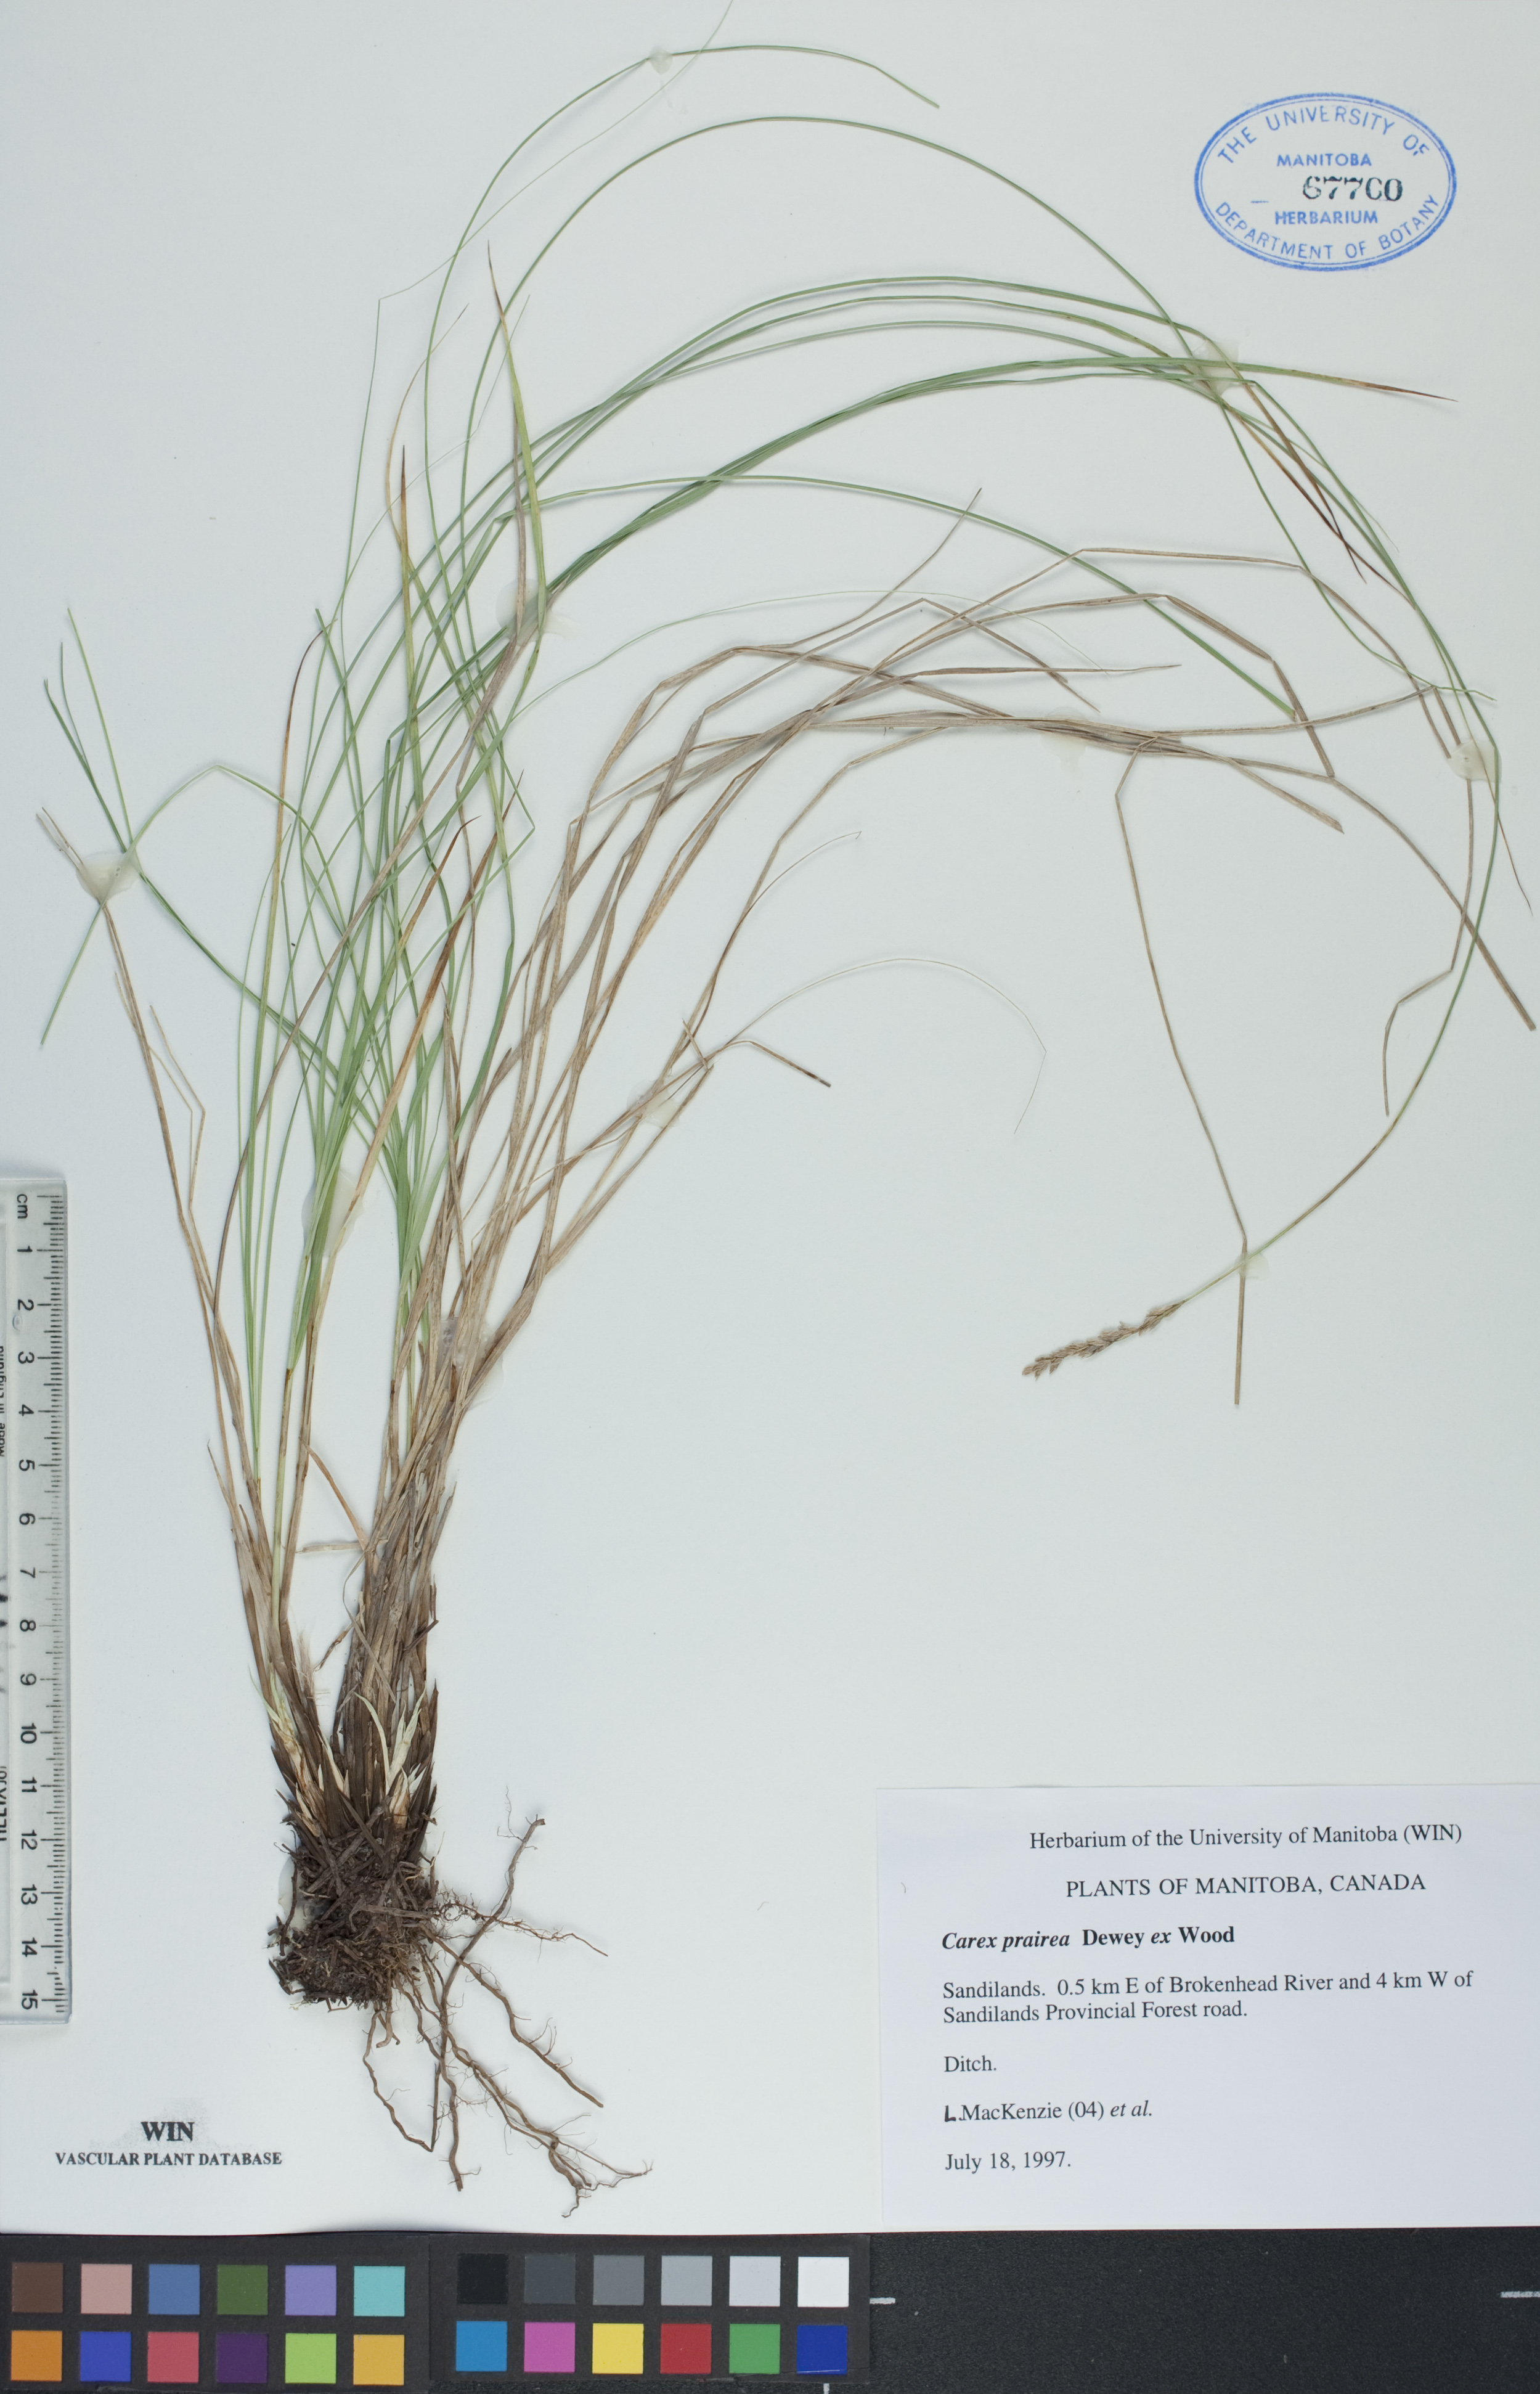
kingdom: Plantae
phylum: Tracheophyta
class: Liliopsida
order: Poales
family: Cyperaceae
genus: Carex
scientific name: Carex prairea
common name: Prairie sedge
